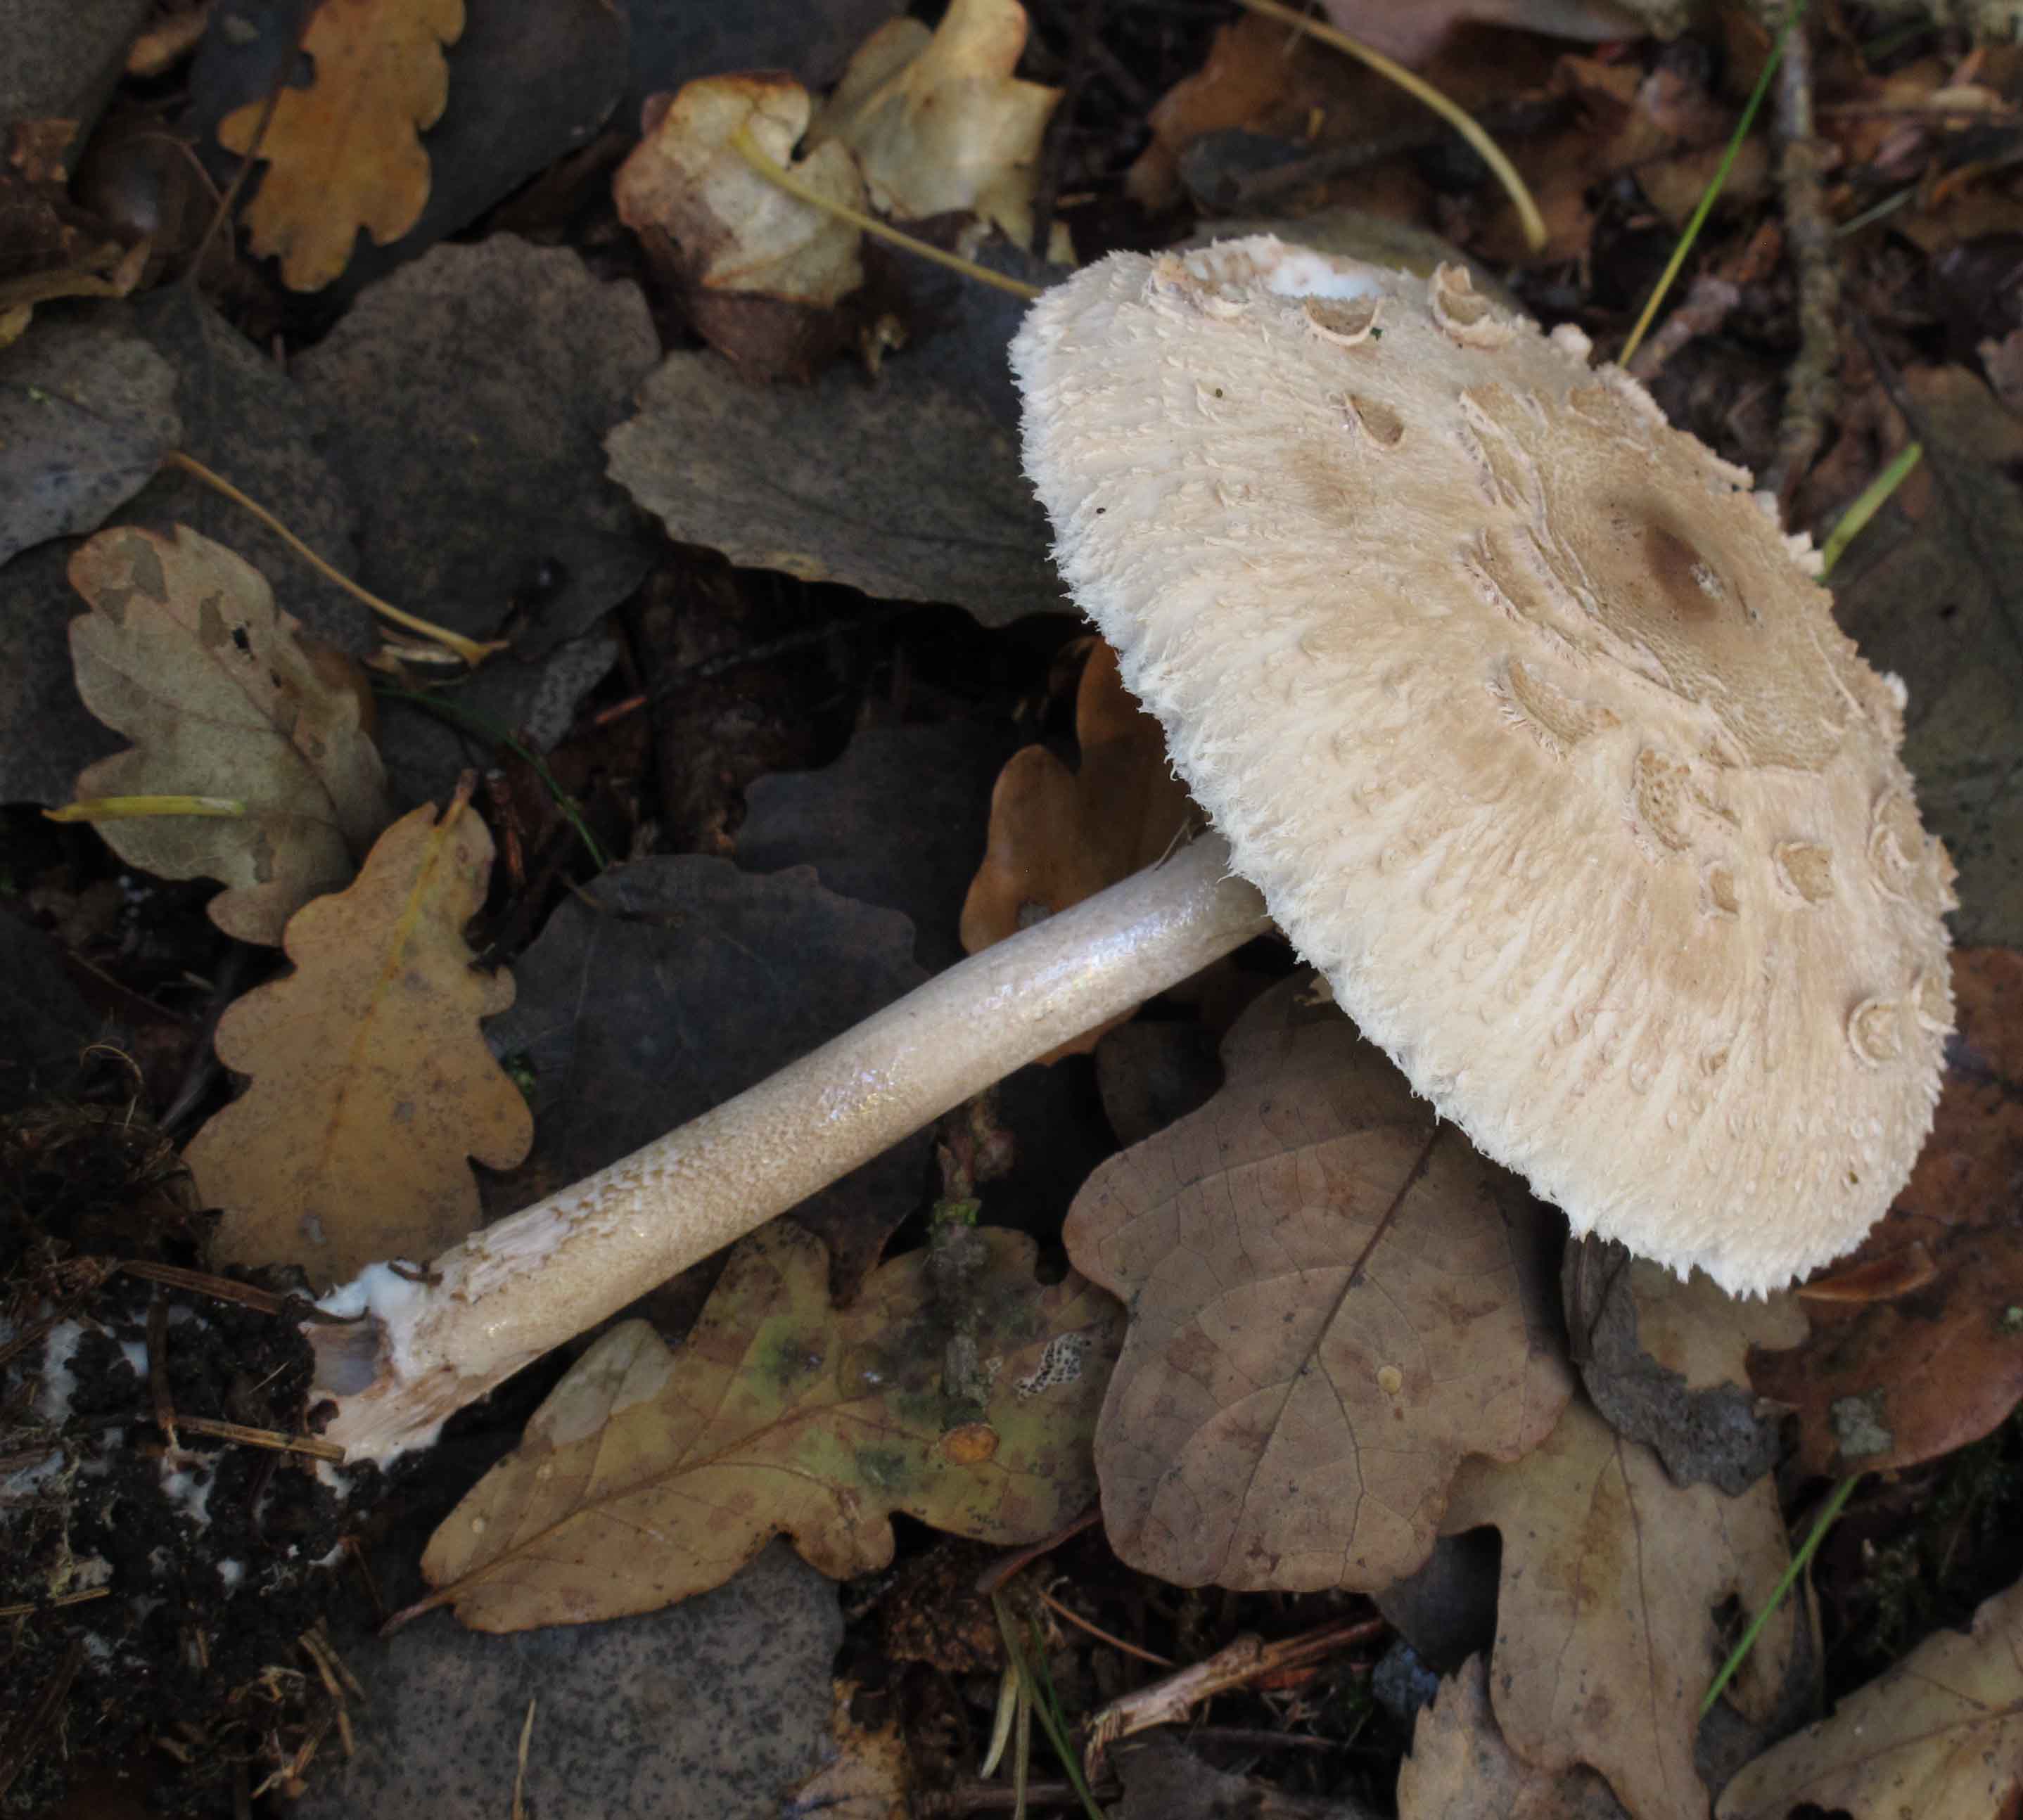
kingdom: Fungi
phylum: Basidiomycota
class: Agaricomycetes
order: Agaricales
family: Agaricaceae
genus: Macrolepiota
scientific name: Macrolepiota procera
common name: stor kæmpeparasolhat
